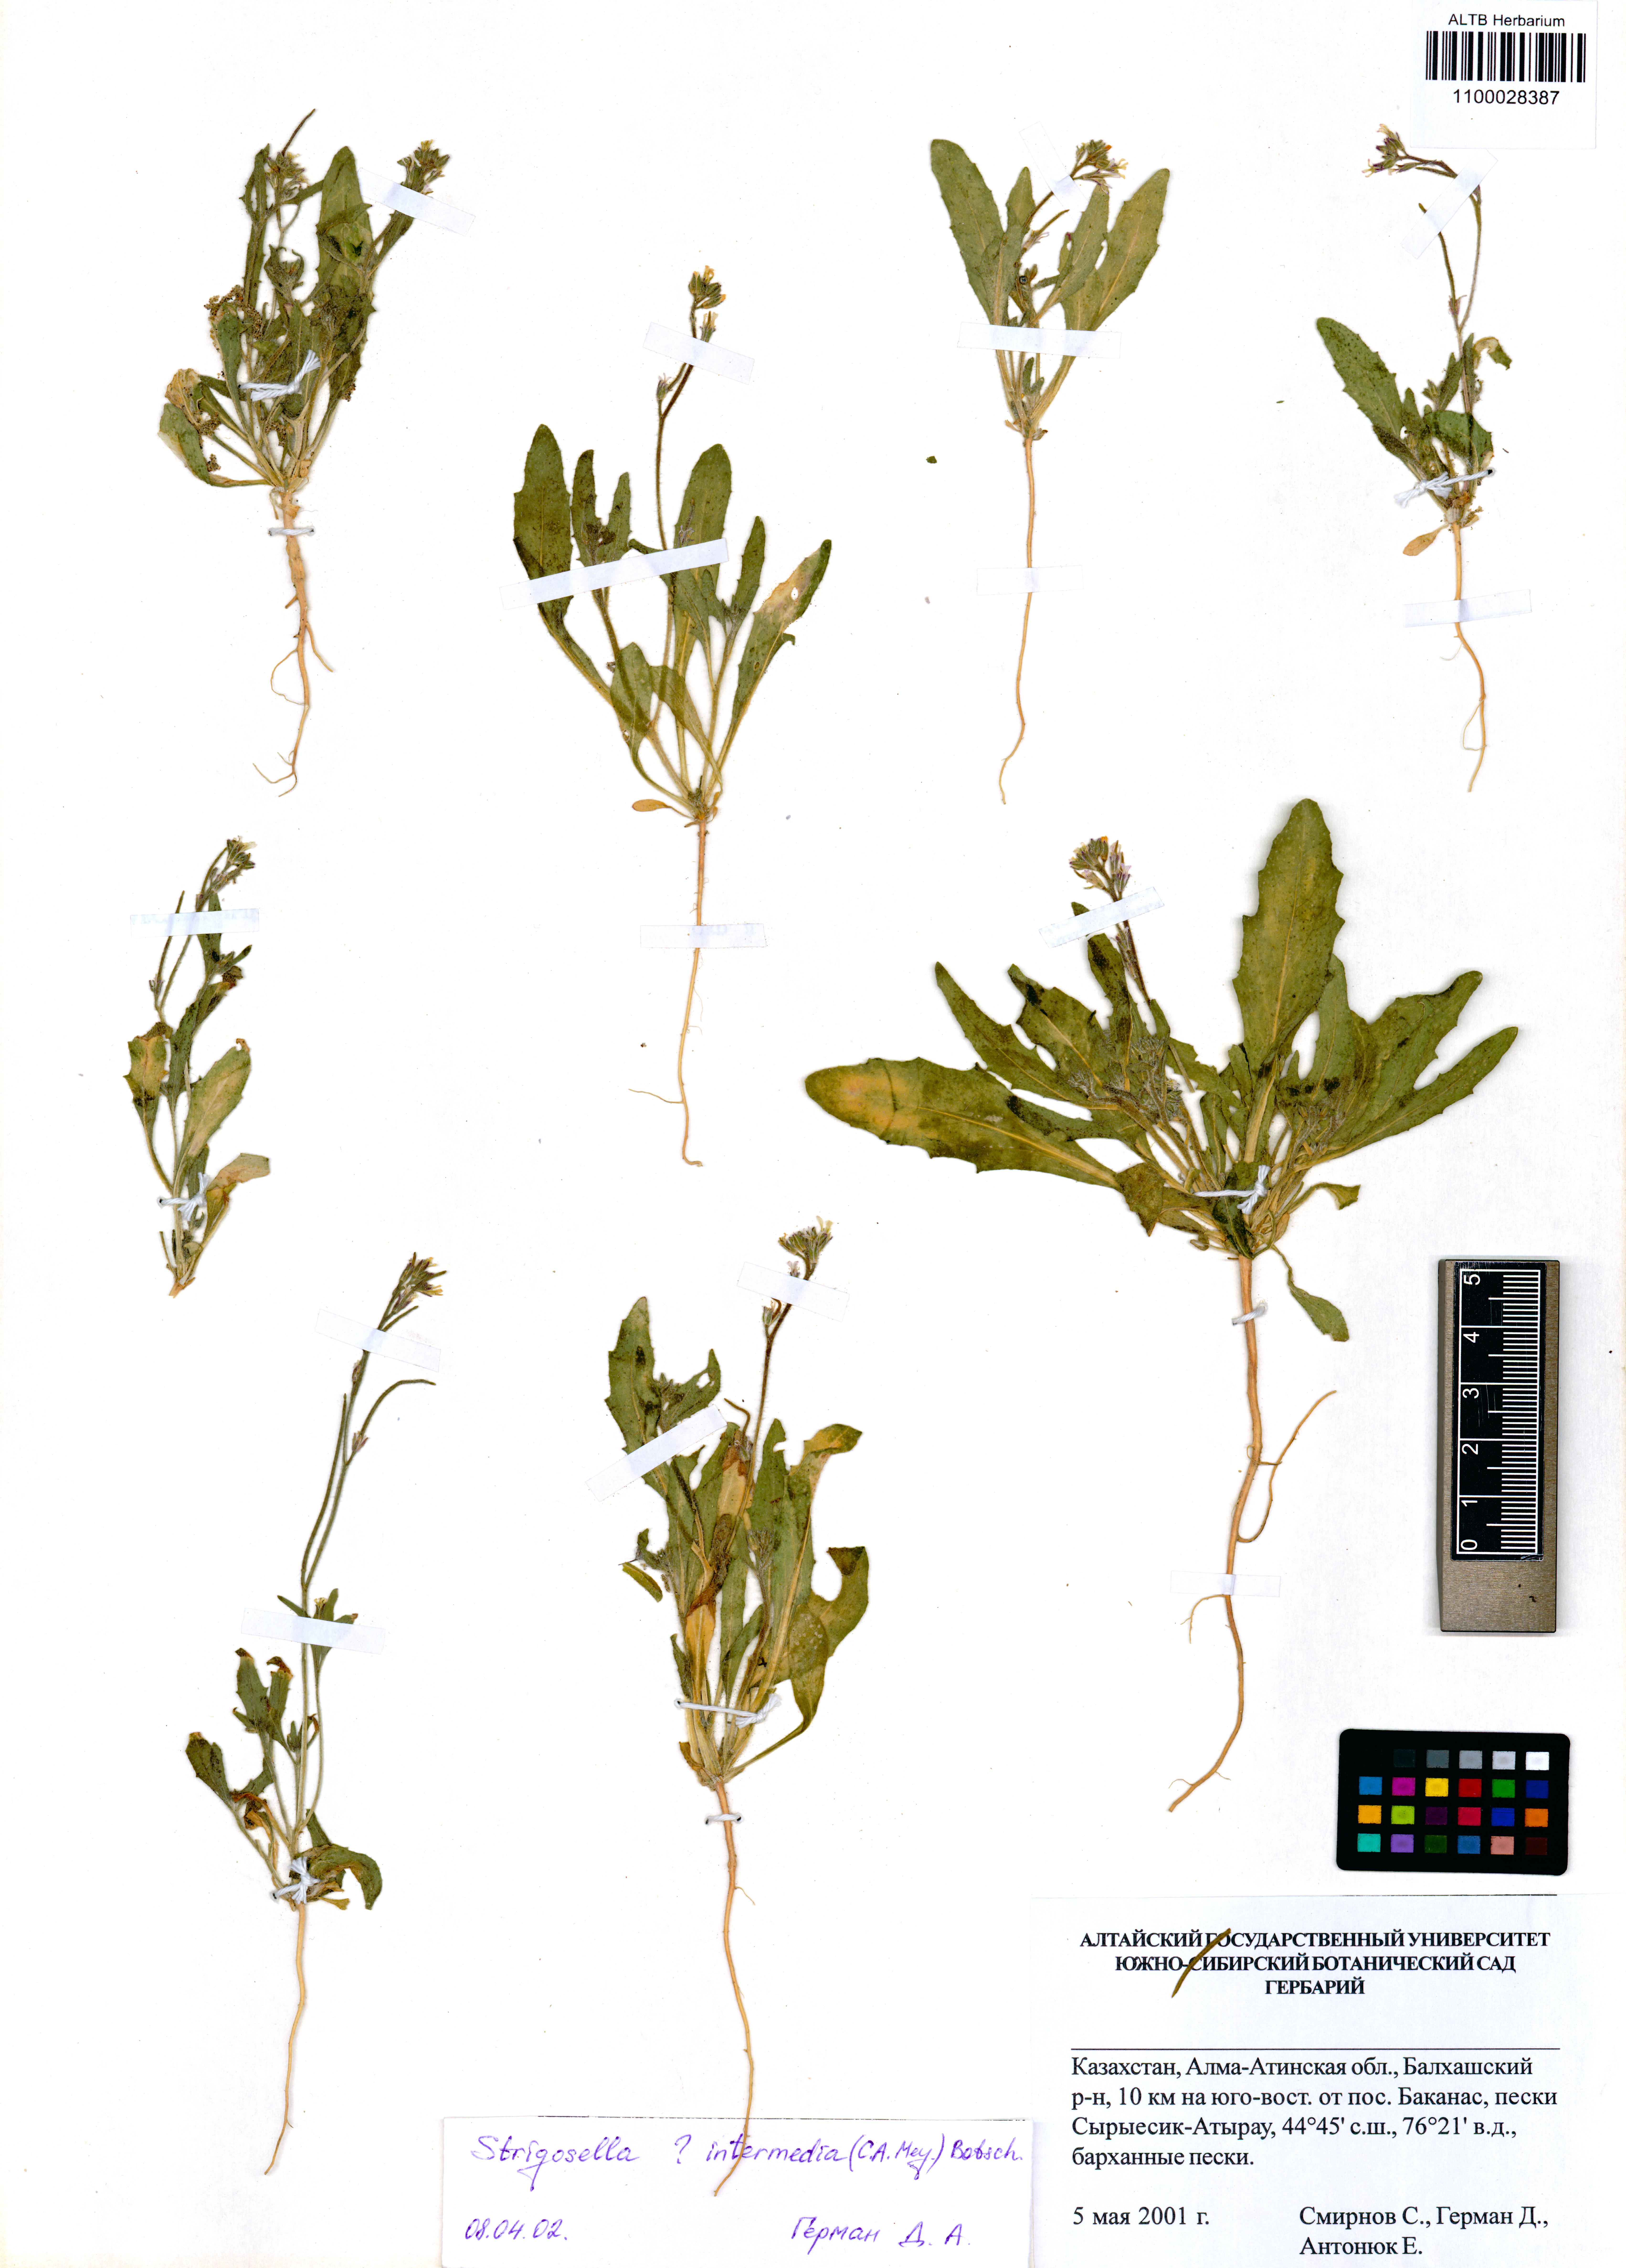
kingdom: Plantae
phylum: Tracheophyta
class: Magnoliopsida
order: Brassicales
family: Brassicaceae
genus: Strigosella
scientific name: Strigosella intermedia
